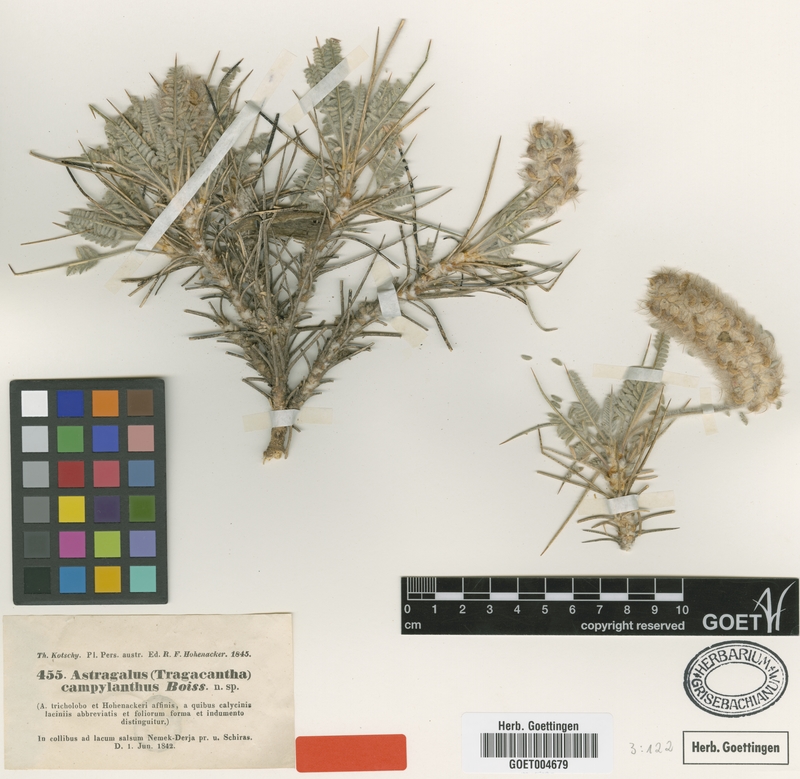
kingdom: Plantae
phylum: Tracheophyta
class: Magnoliopsida
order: Fabales
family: Fabaceae
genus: Astragalus
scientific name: Astragalus campylanthus
